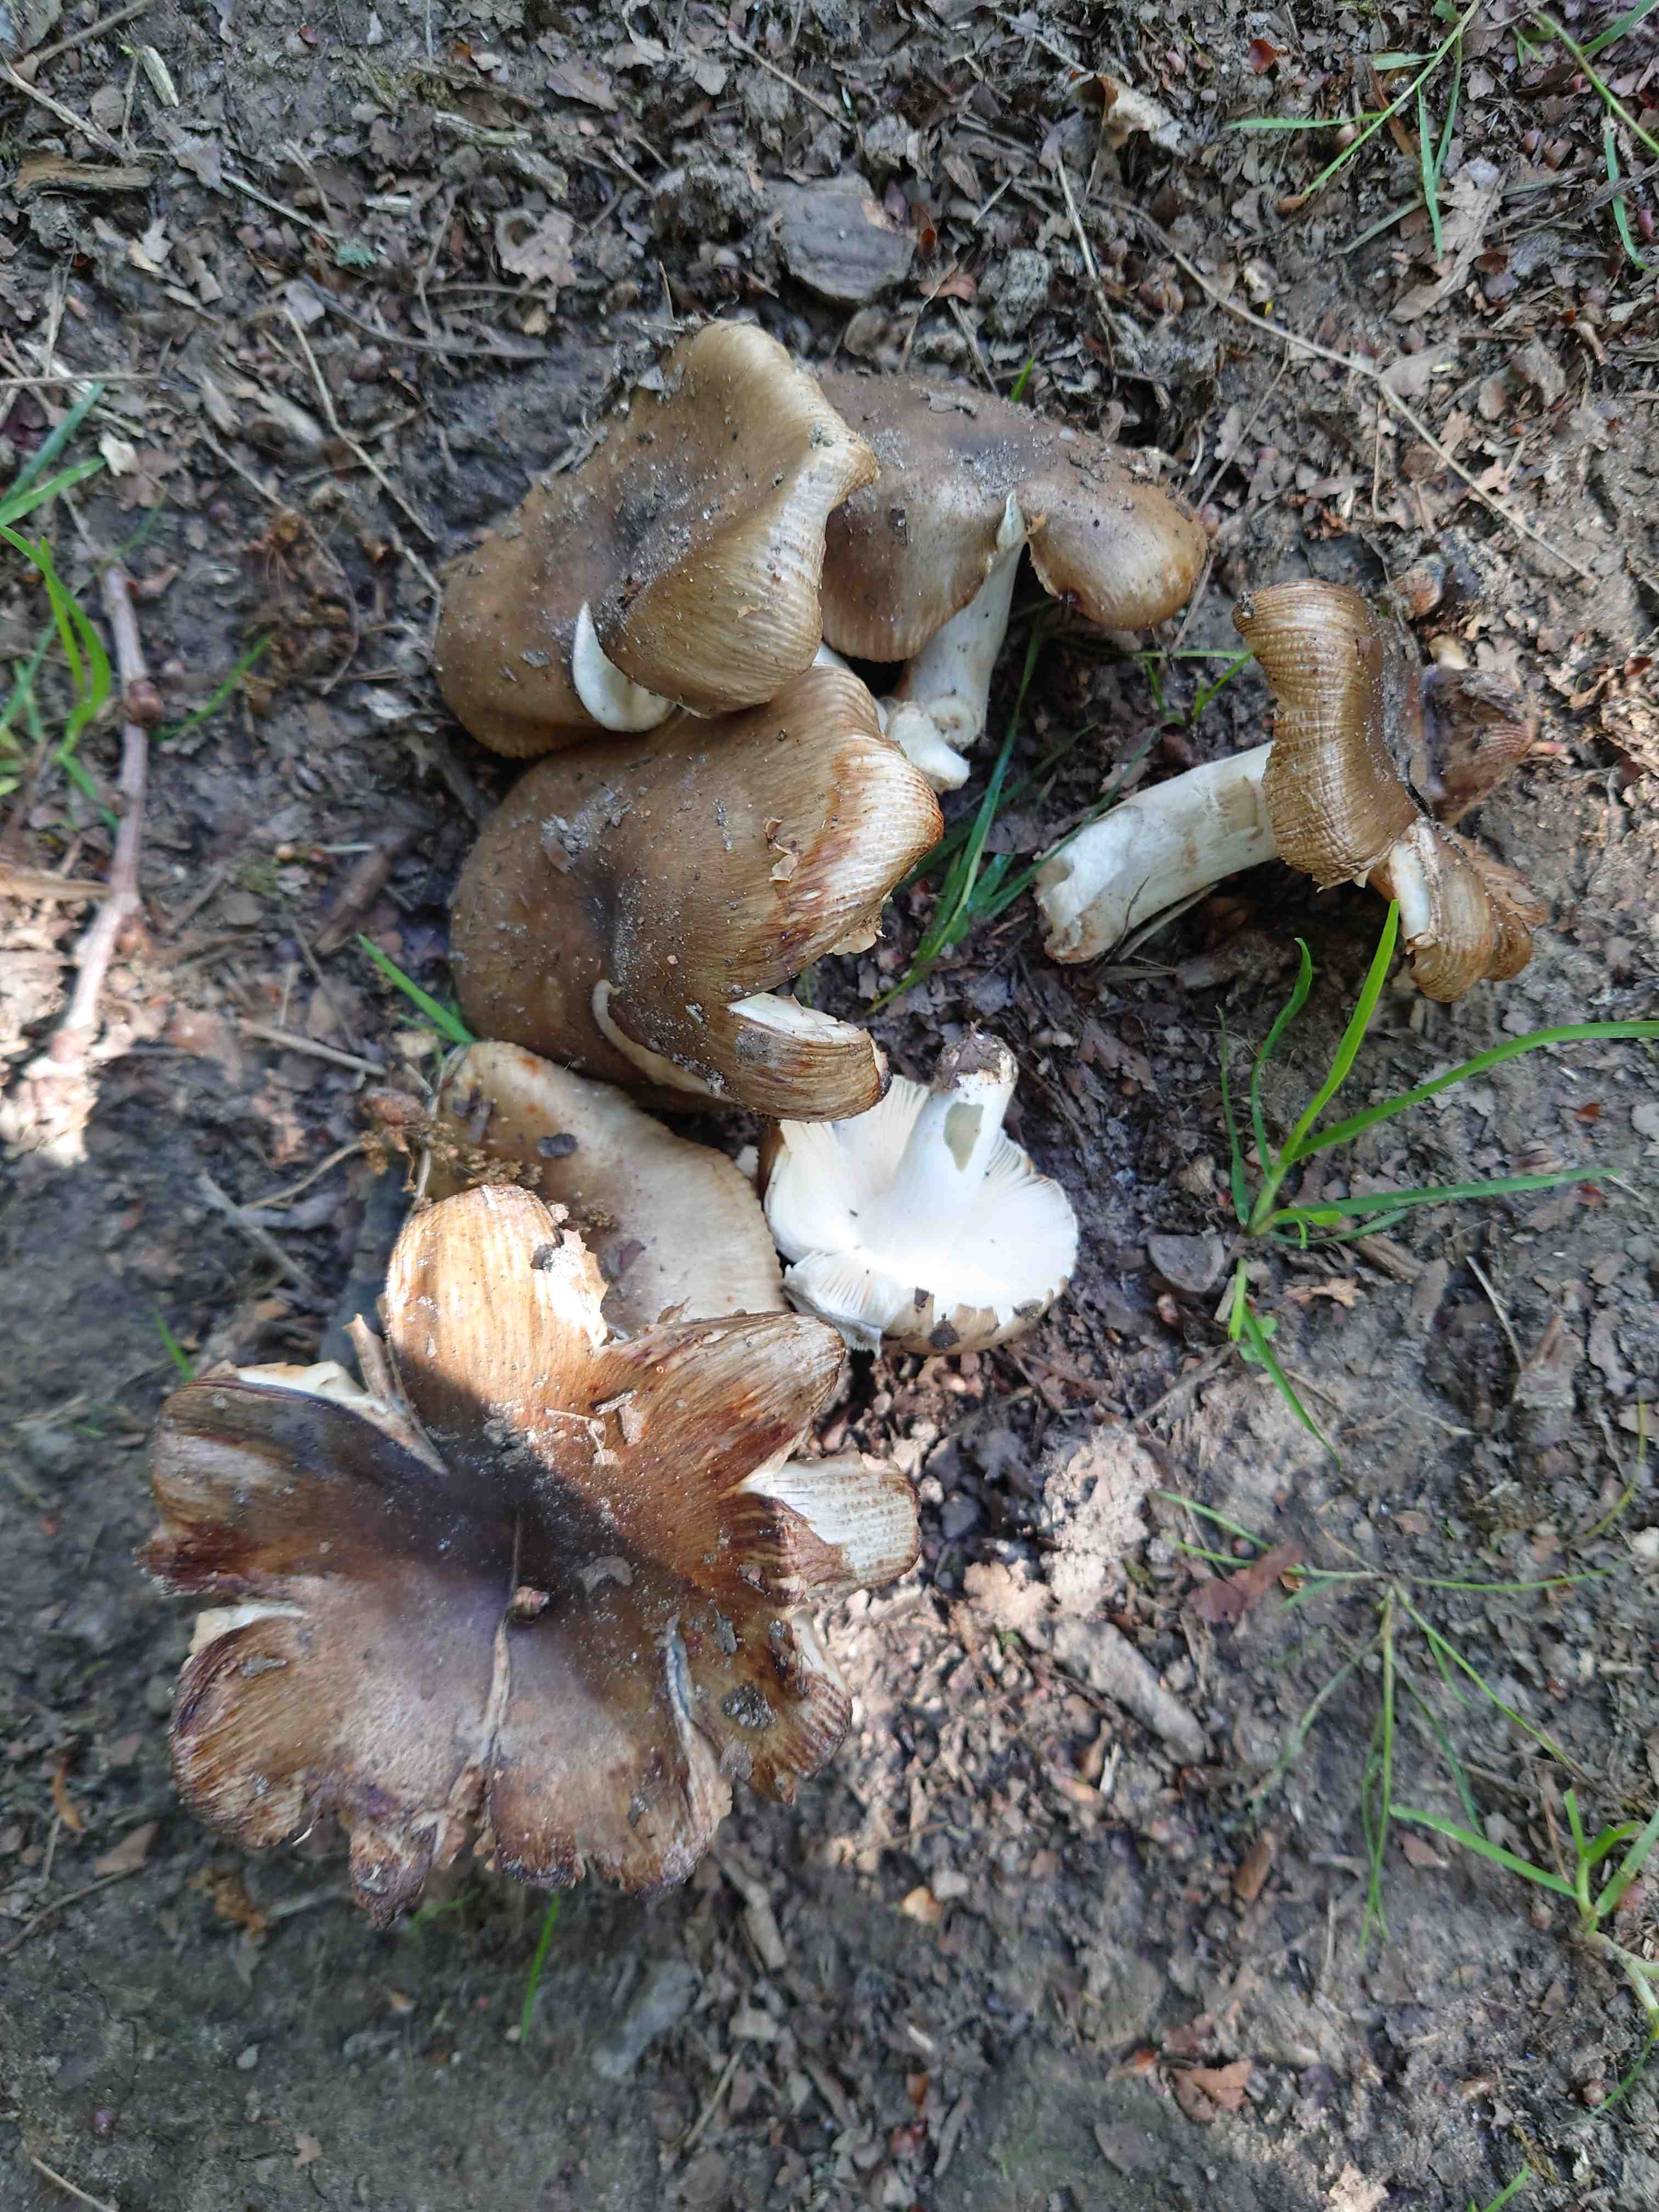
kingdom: Fungi
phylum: Basidiomycota
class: Agaricomycetes
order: Russulales
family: Russulaceae
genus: Russula
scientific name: Russula sororia
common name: brun kam-skørhat
